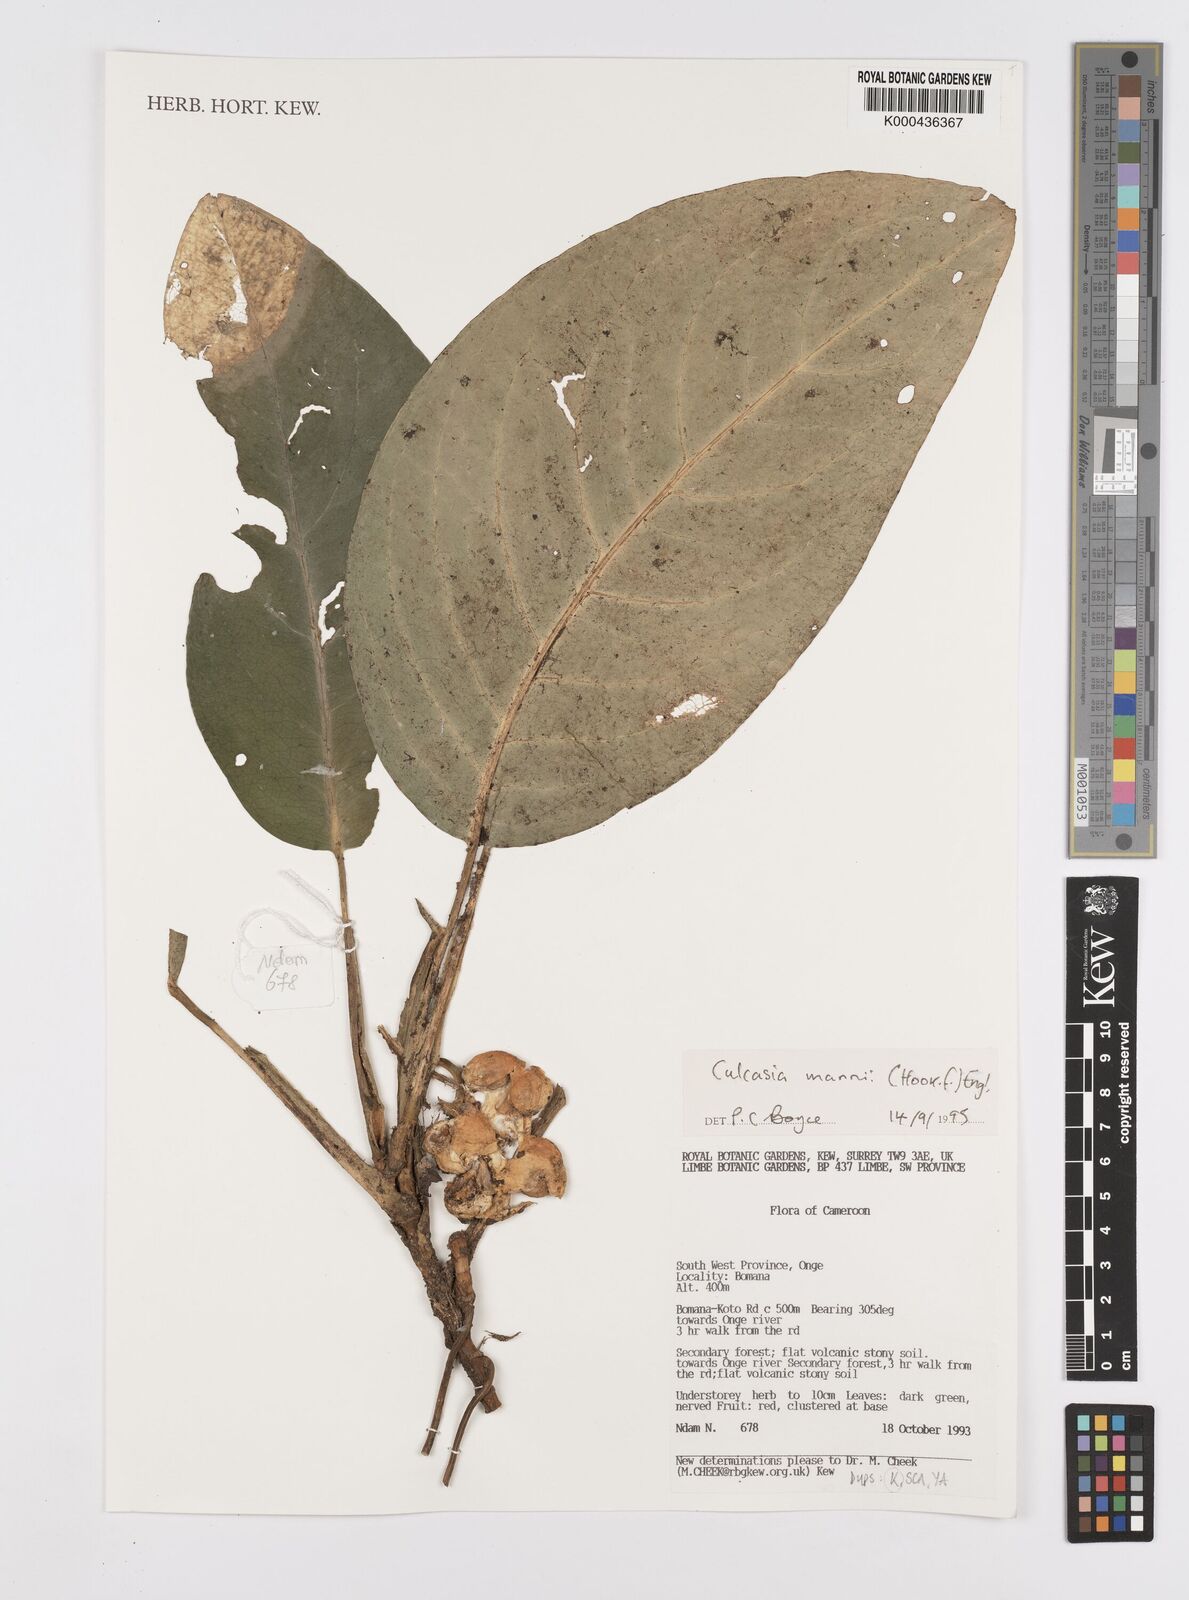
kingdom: Plantae
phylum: Tracheophyta
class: Liliopsida
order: Alismatales
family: Araceae
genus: Culcasia
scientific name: Culcasia mannii
